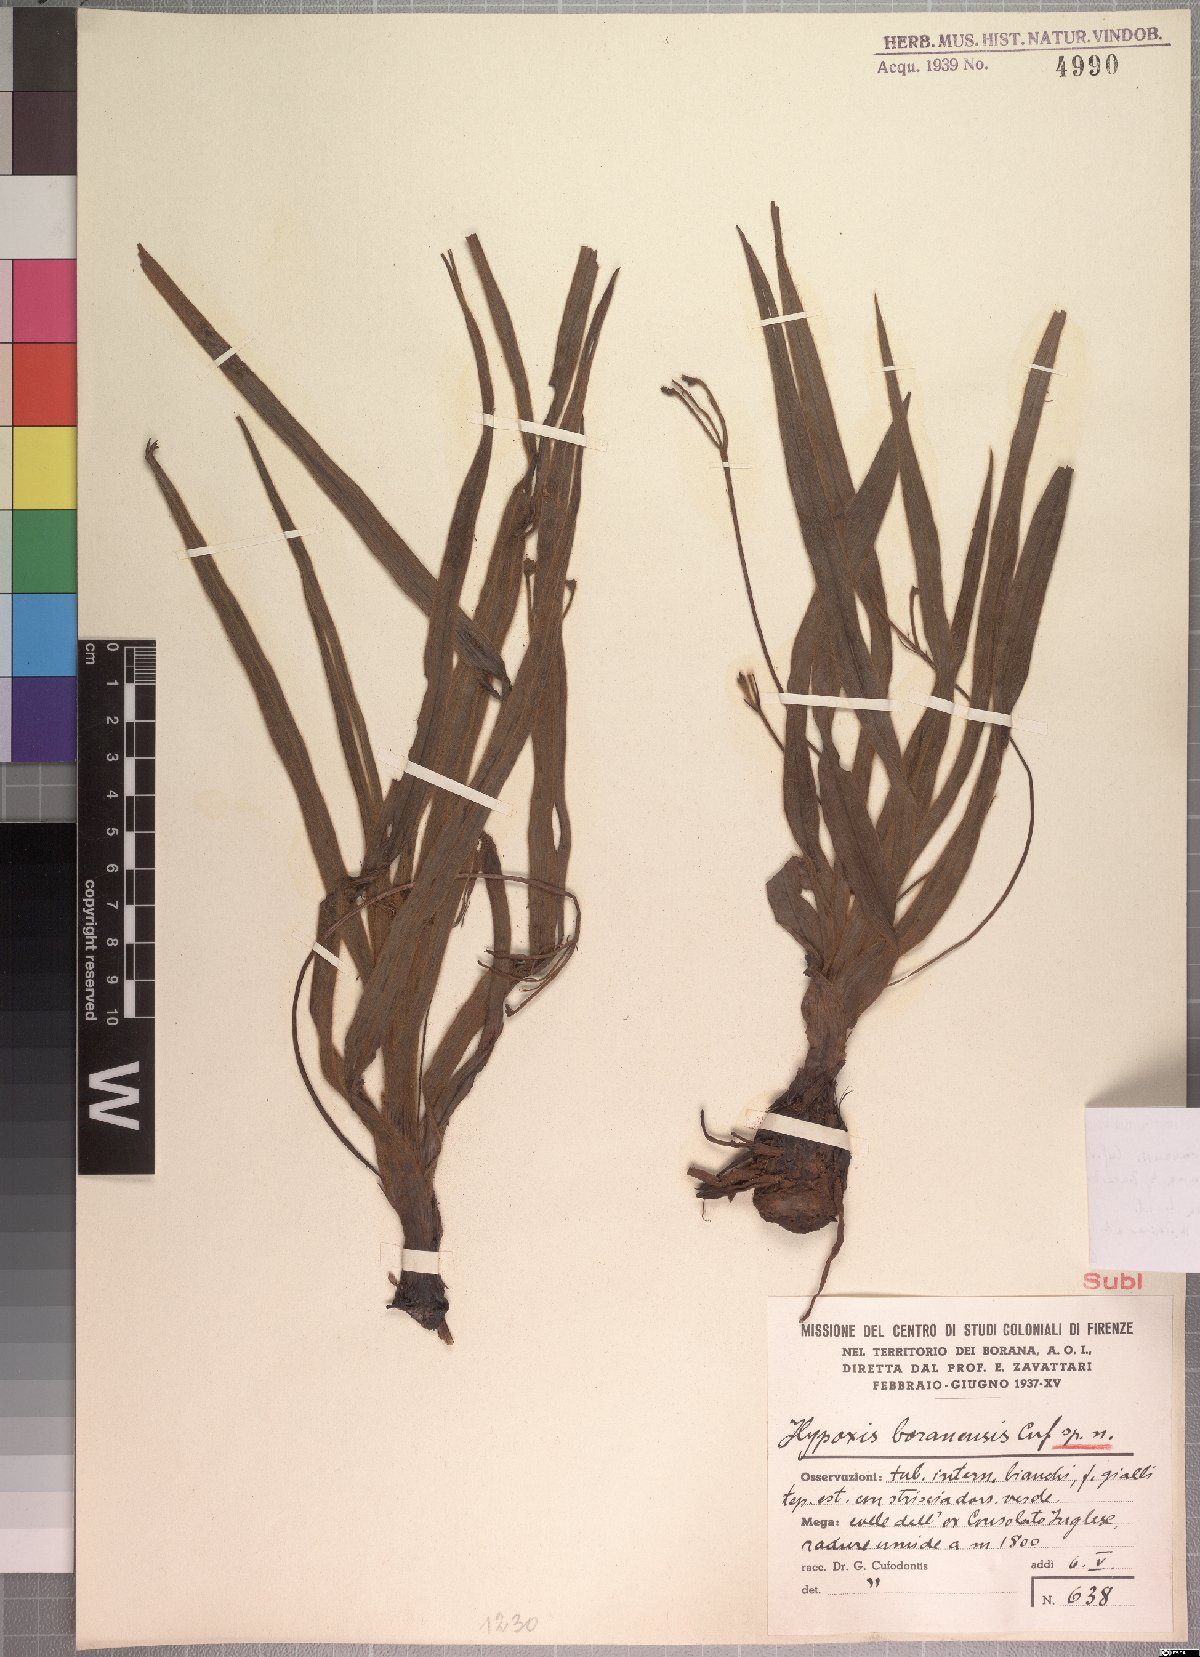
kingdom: Plantae
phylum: Tracheophyta
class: Liliopsida
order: Asparagales
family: Hypoxidaceae
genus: Hypoxis
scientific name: Hypoxis abyssinica
